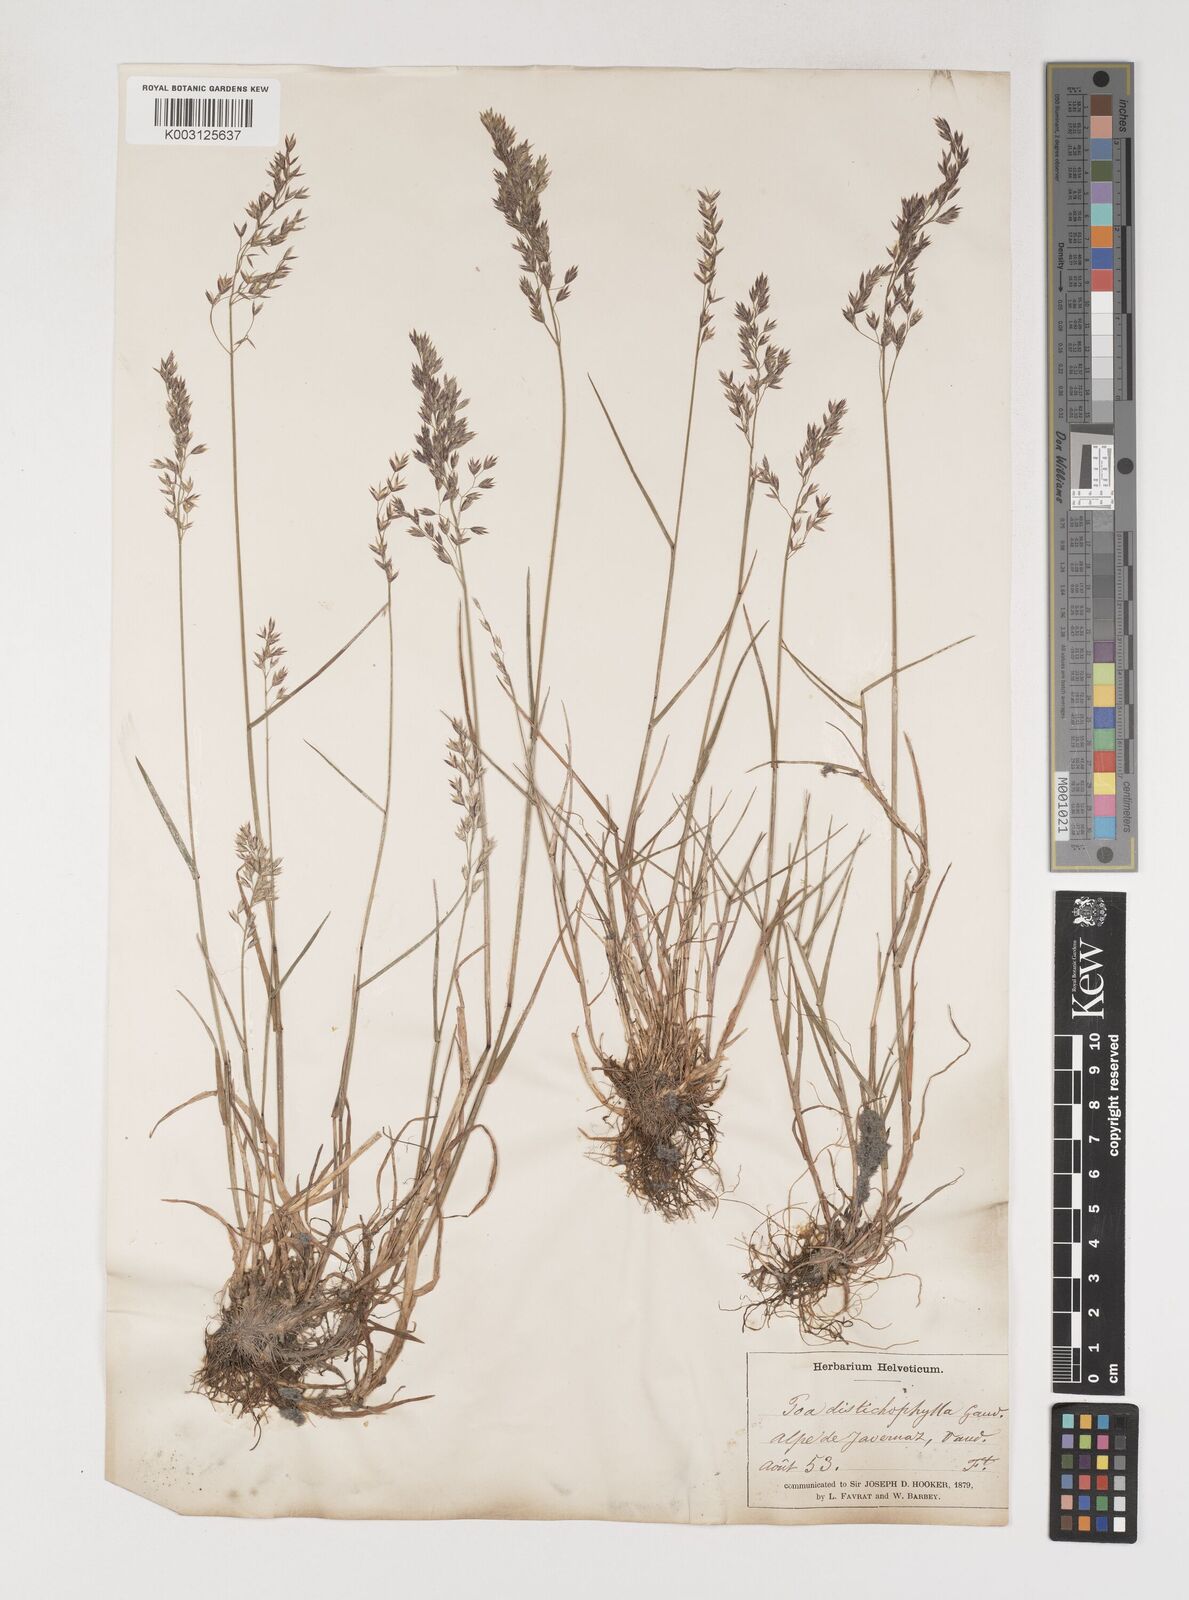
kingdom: Plantae
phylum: Tracheophyta
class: Liliopsida
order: Poales
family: Poaceae
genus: Poa
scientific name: Poa
